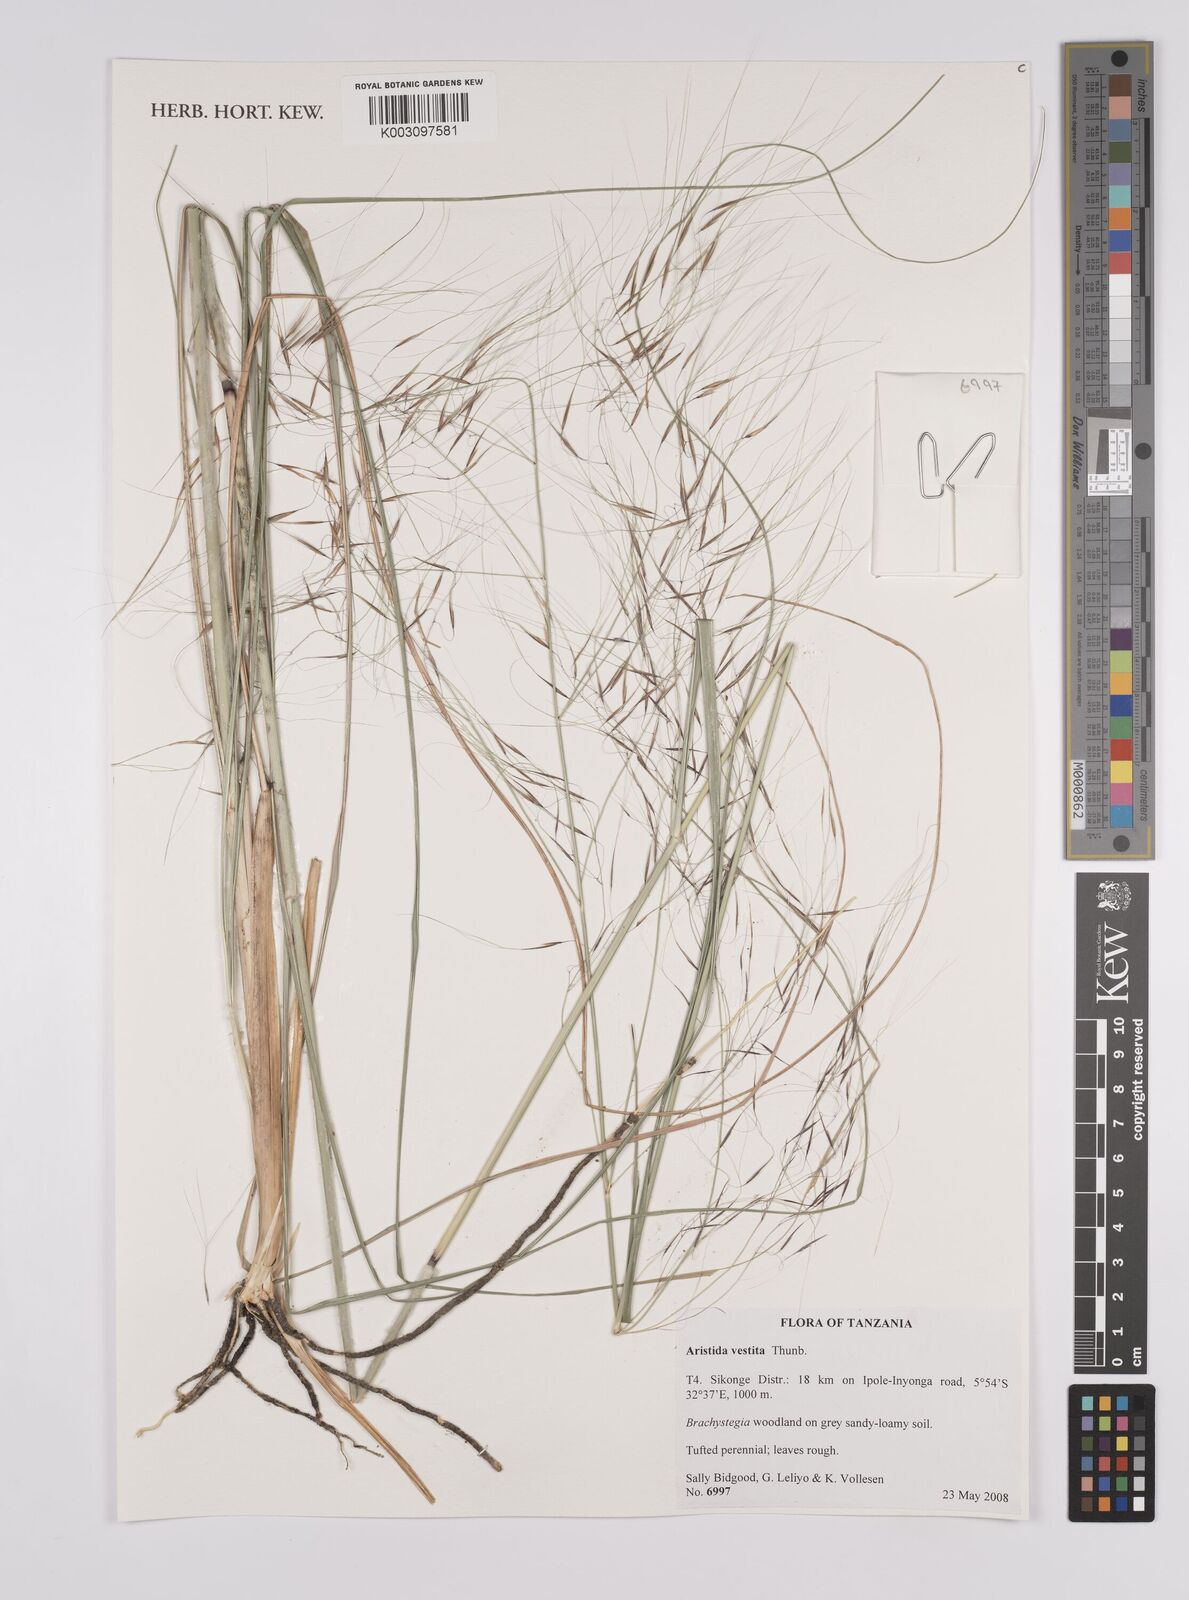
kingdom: Plantae
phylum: Tracheophyta
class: Liliopsida
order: Poales
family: Poaceae
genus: Aristida
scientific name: Aristida vestita
